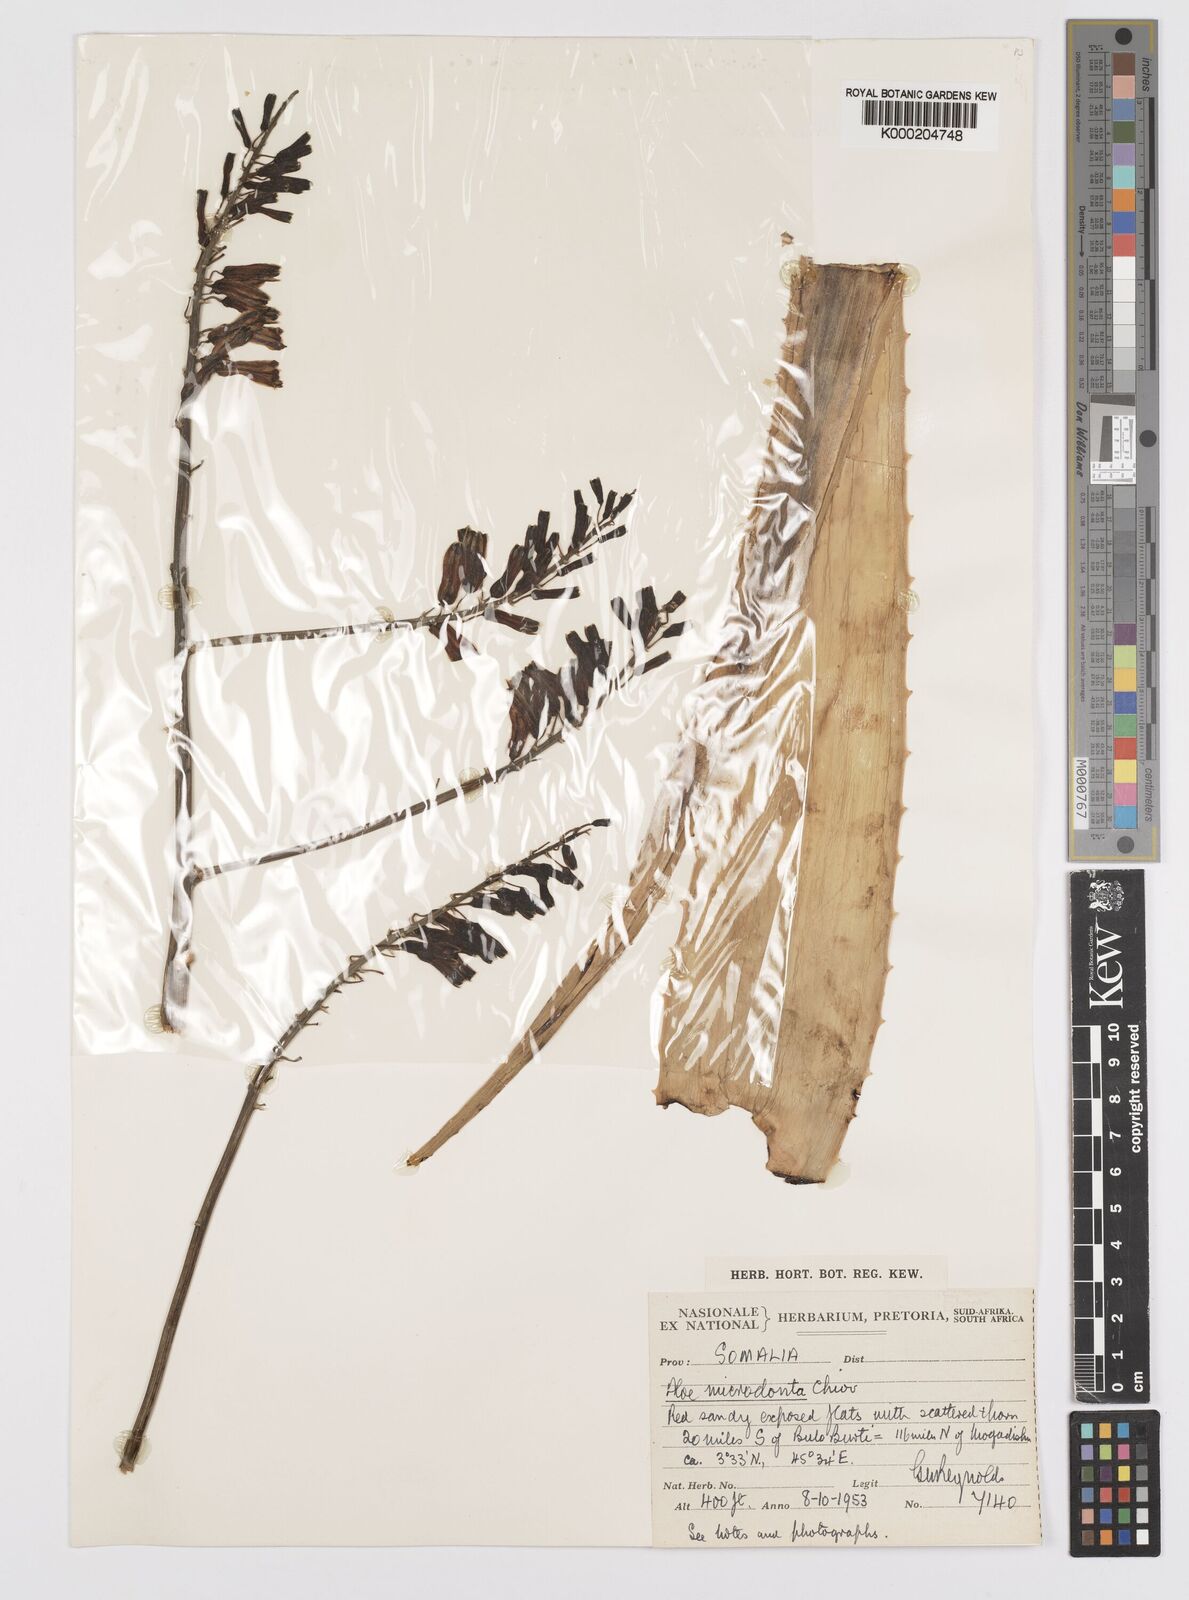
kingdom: Plantae
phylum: Tracheophyta
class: Liliopsida
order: Asparagales
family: Asphodelaceae
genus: Aloe
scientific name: Aloe microdonta
